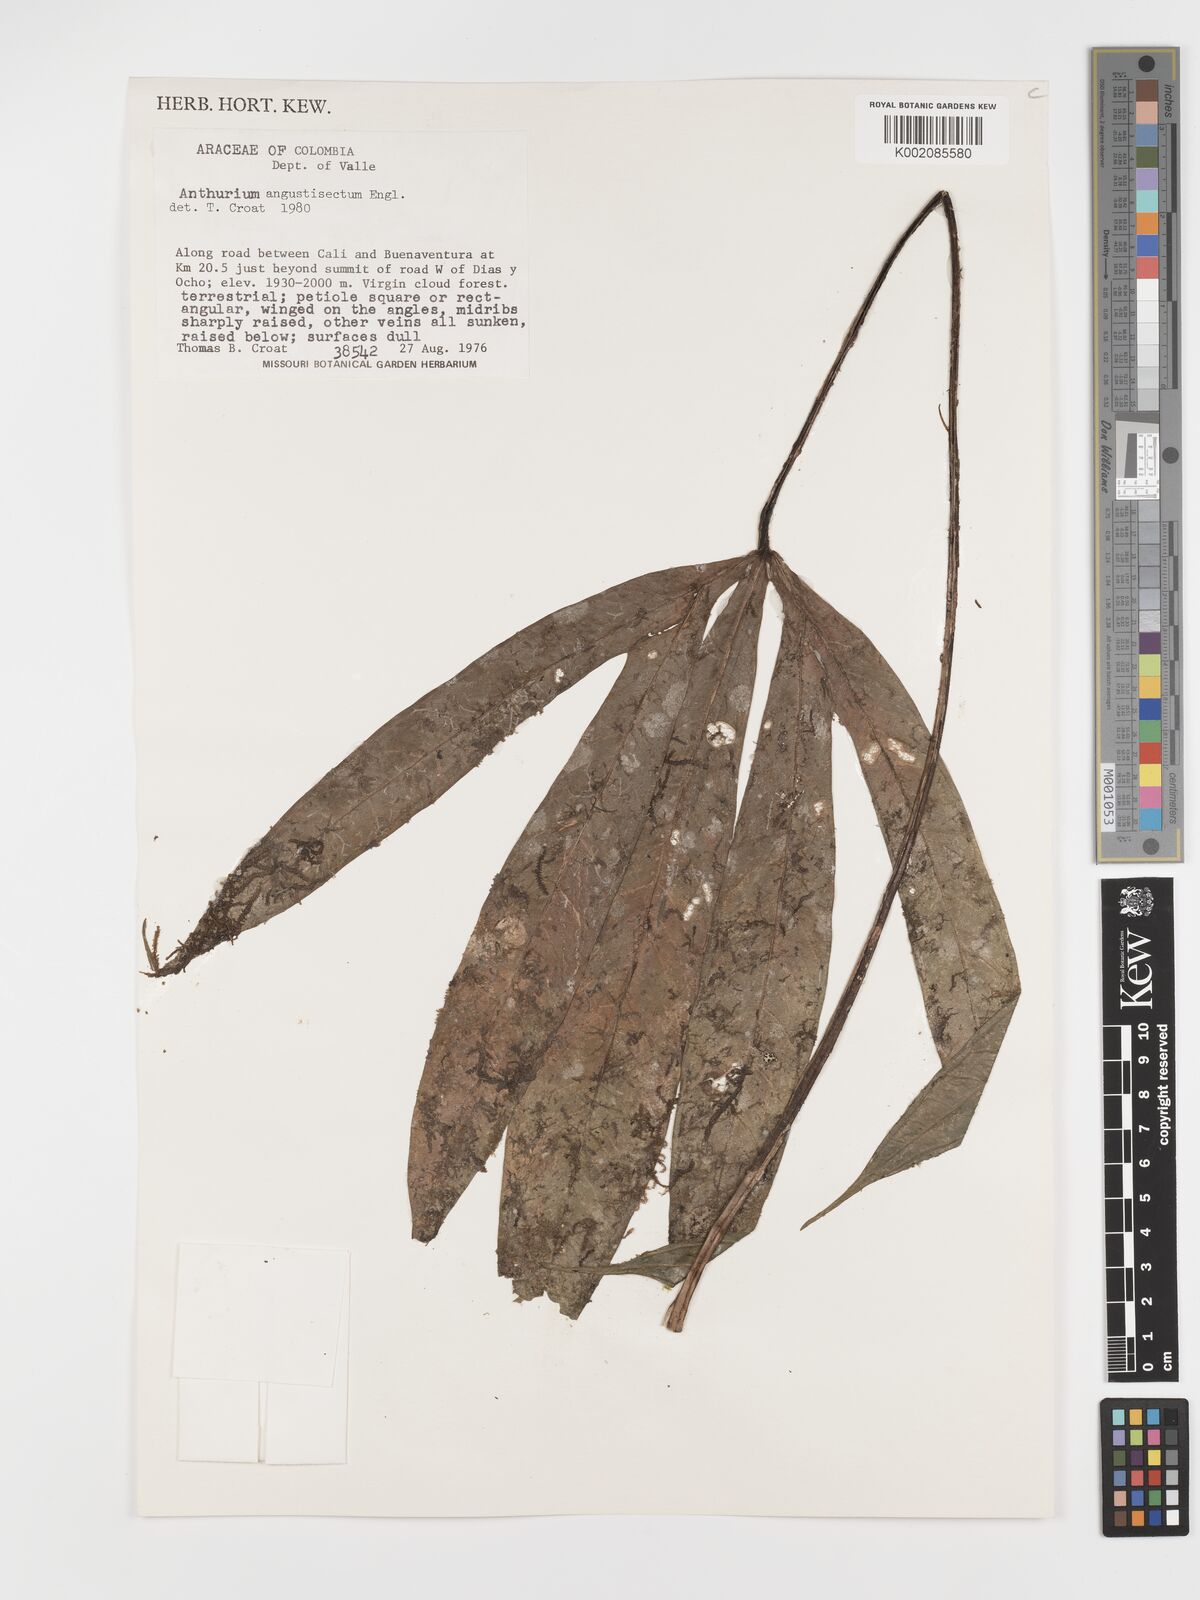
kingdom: Plantae
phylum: Tracheophyta
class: Liliopsida
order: Alismatales
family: Araceae
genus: Anthurium
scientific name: Anthurium angustisectum
